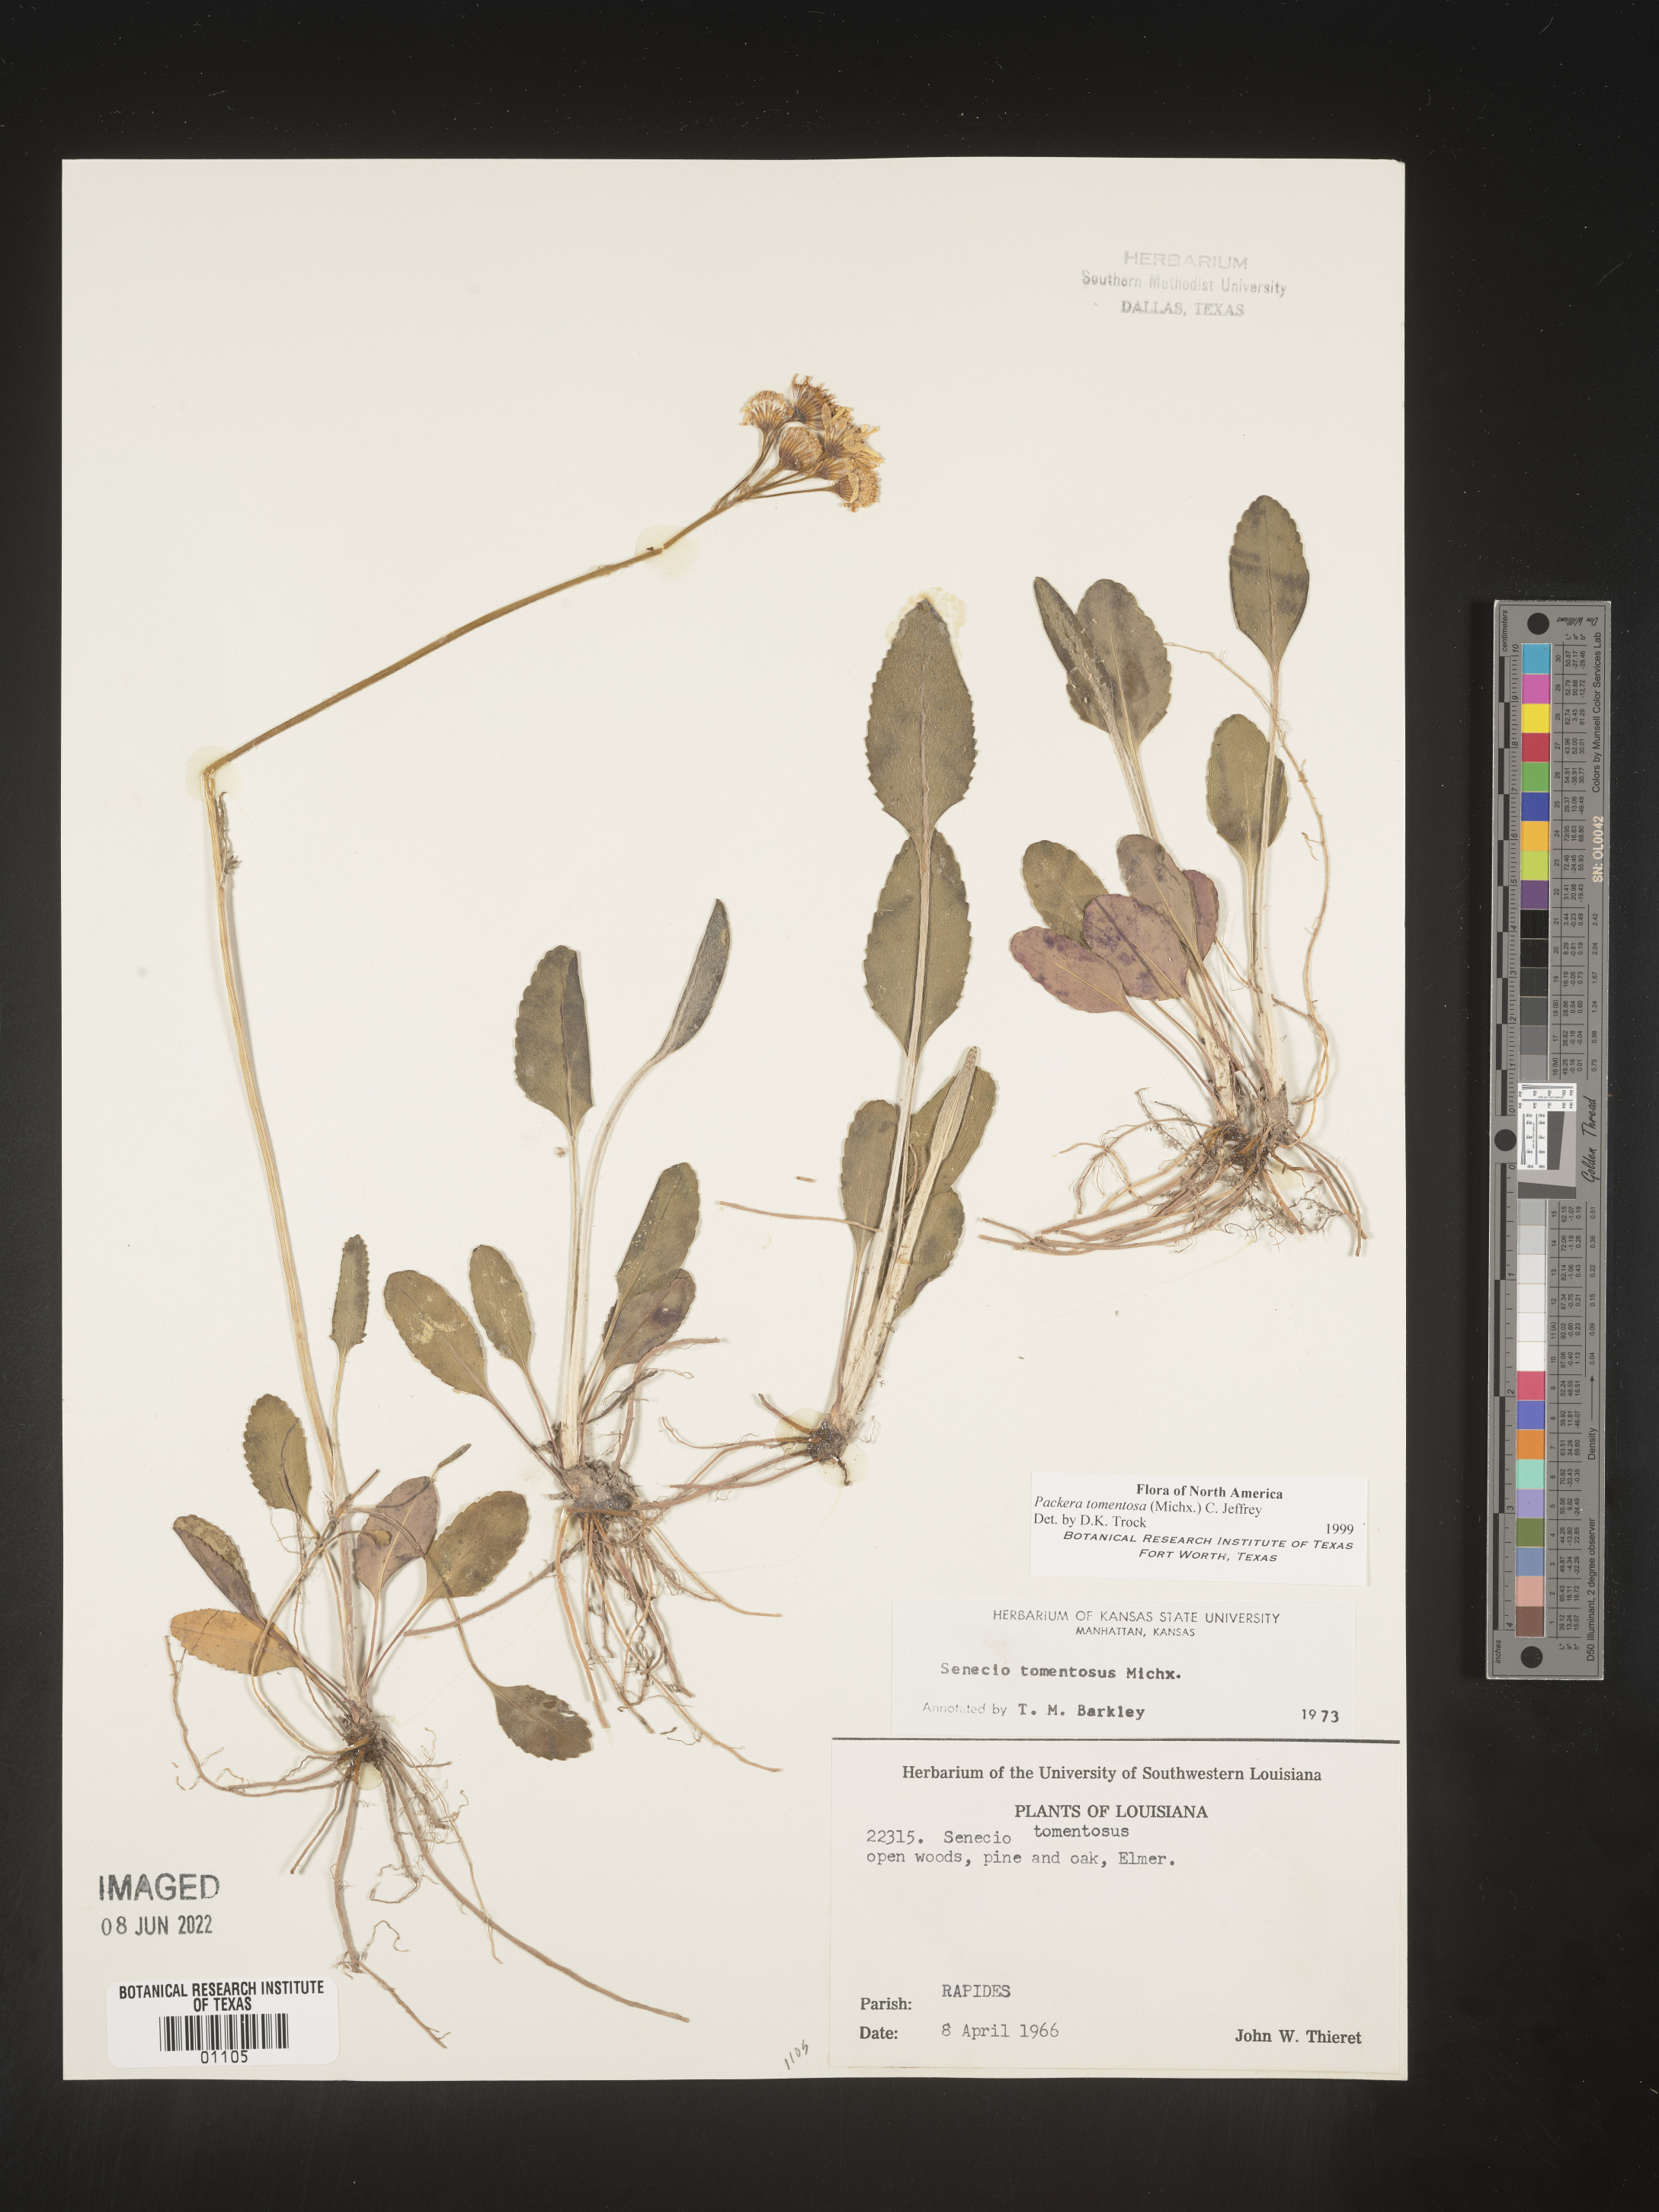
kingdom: Plantae
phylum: Tracheophyta
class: Magnoliopsida
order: Asterales
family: Asteraceae
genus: Packera
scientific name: Packera dubia
